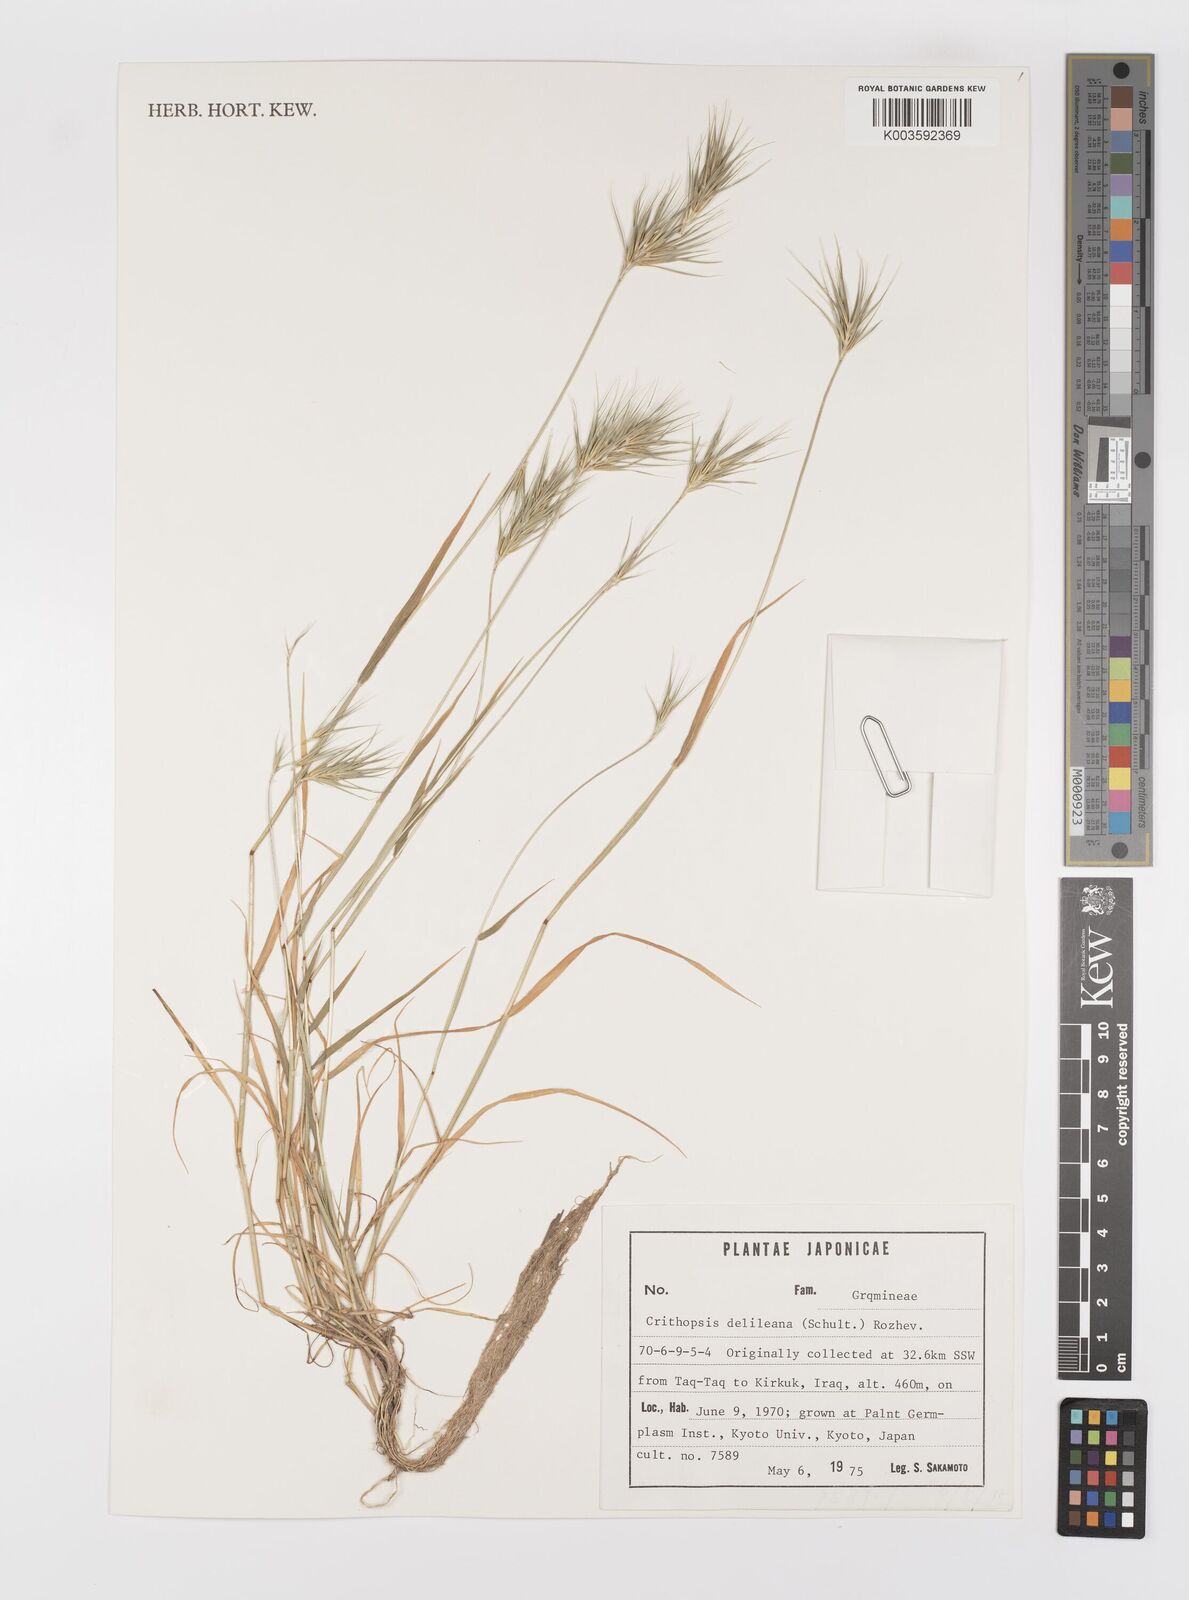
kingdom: Plantae
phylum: Tracheophyta
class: Liliopsida
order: Poales
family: Poaceae
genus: Crithopsis
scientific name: Crithopsis delileana
